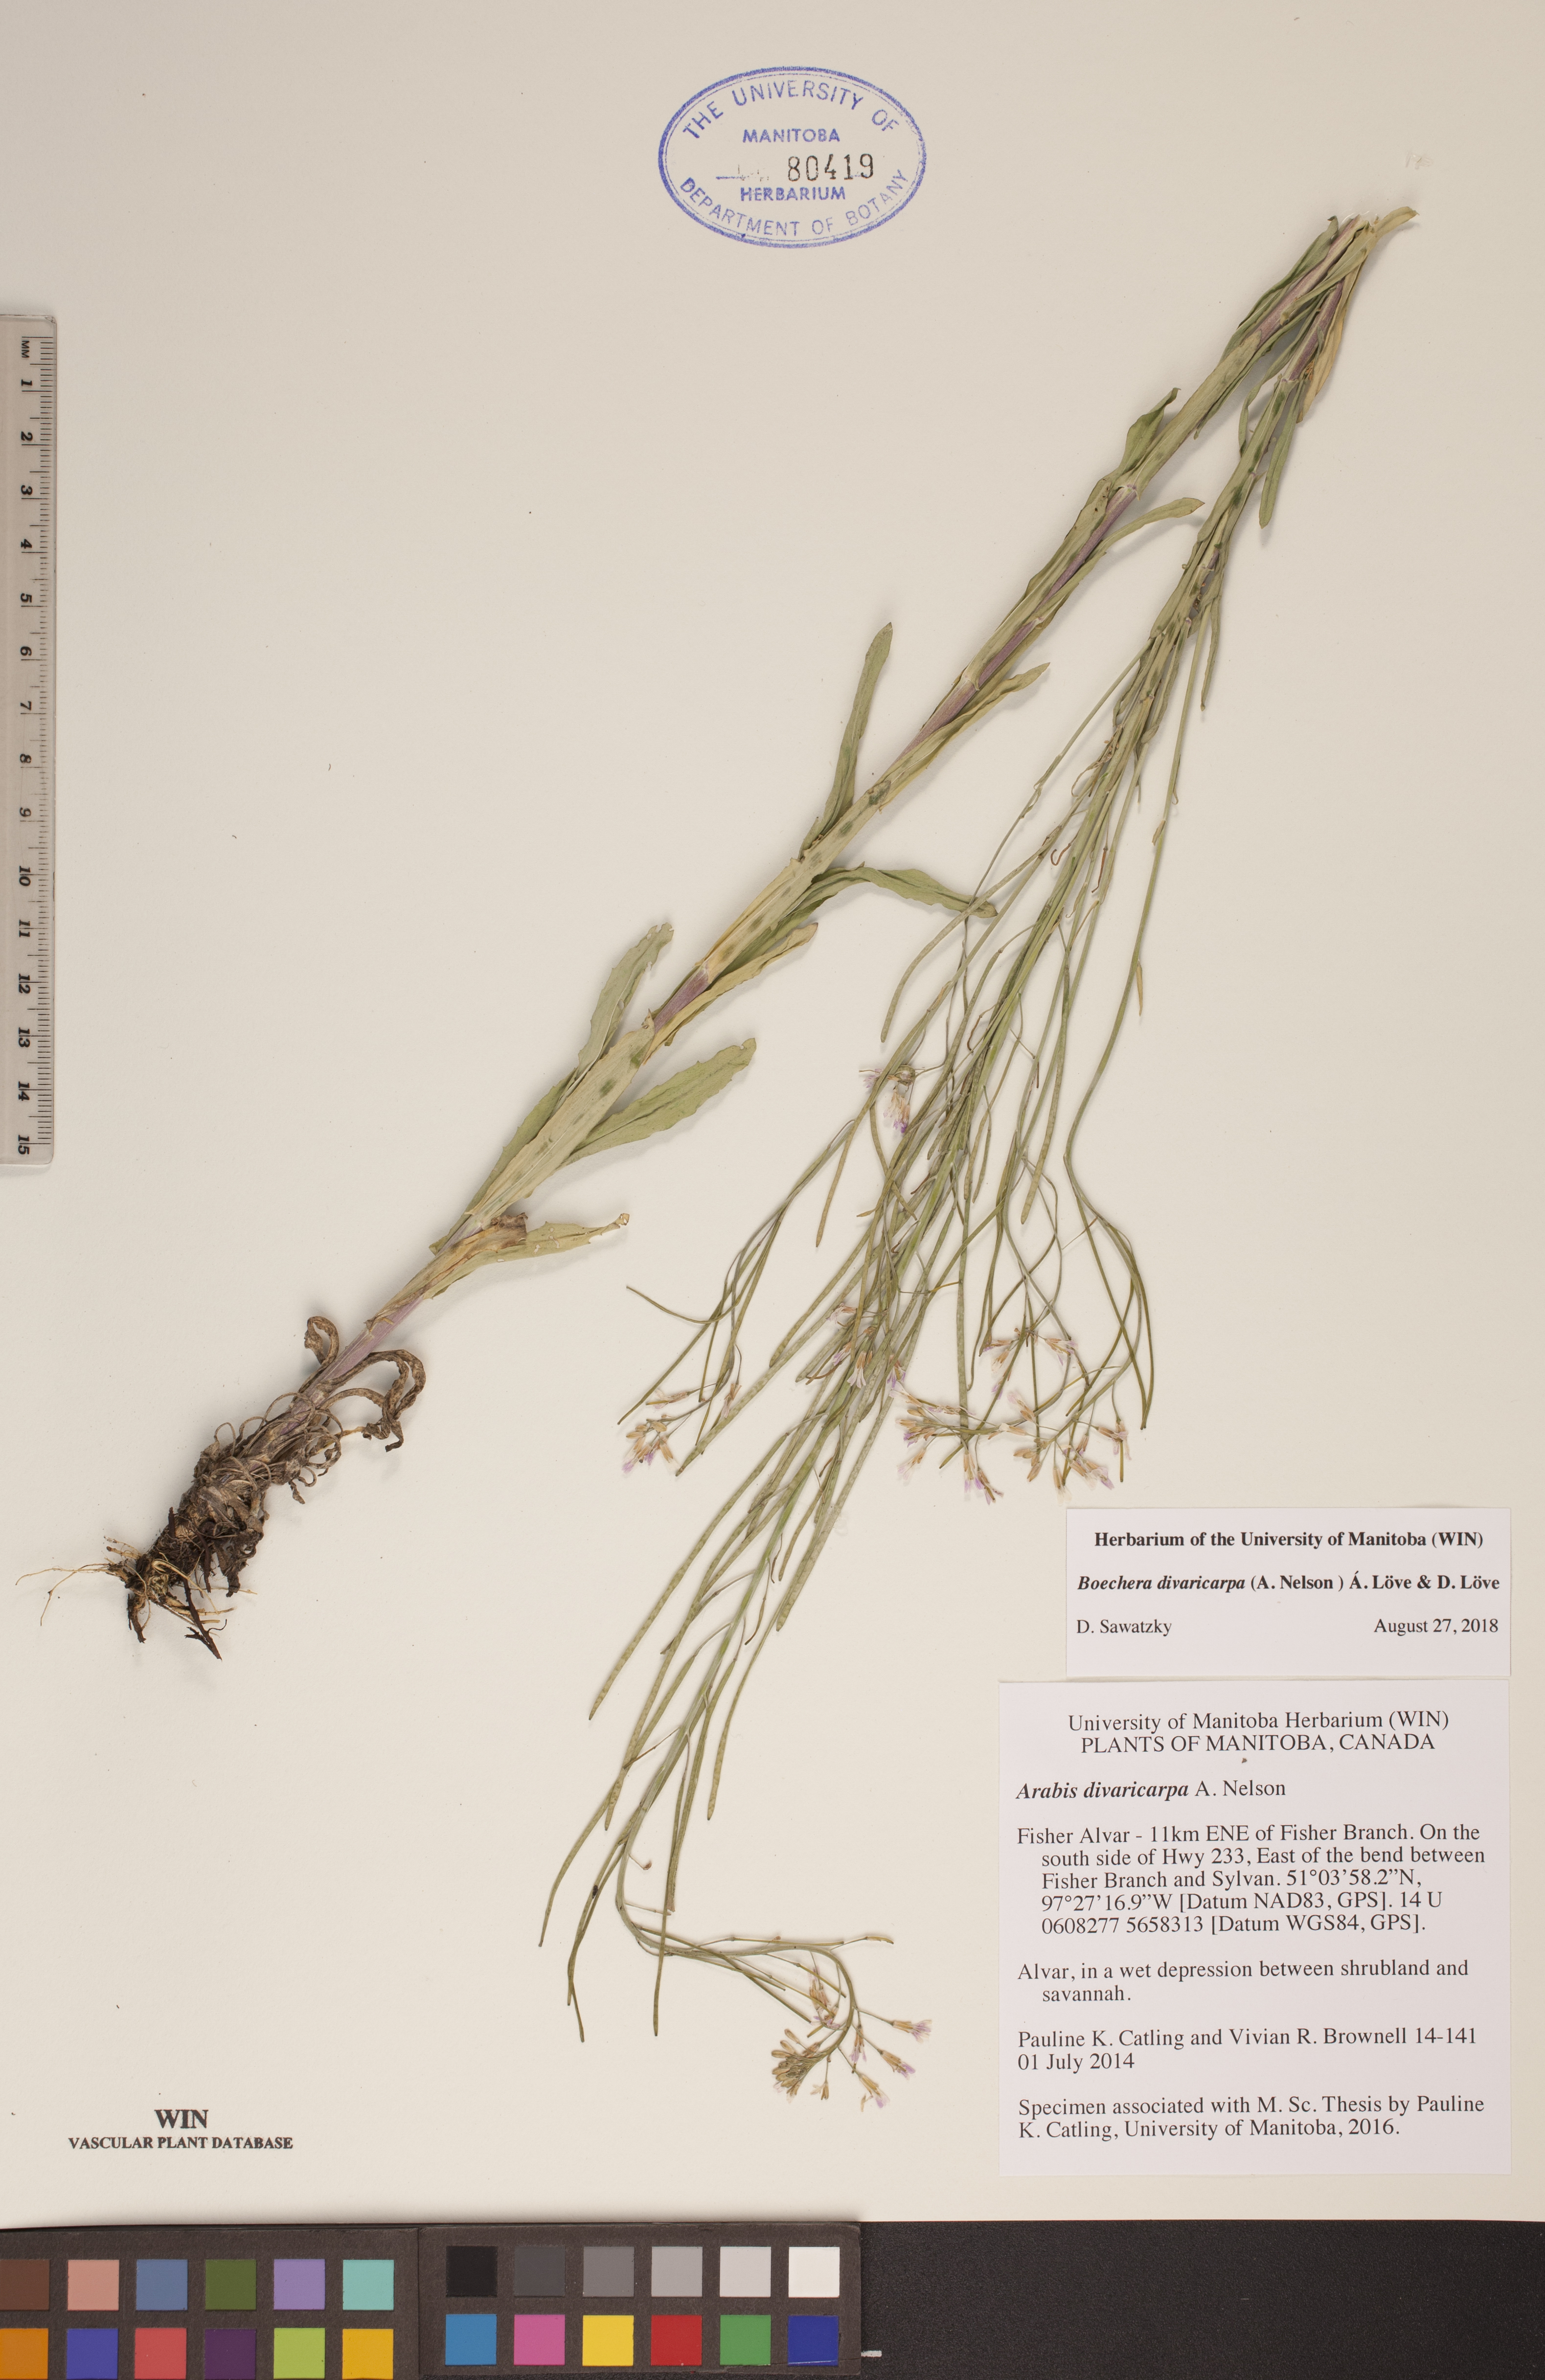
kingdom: Plantae
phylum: Tracheophyta
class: Magnoliopsida
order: Brassicales
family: Brassicaceae
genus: Boechera
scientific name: Boechera divaricarpa
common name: Divaricate rockcress
